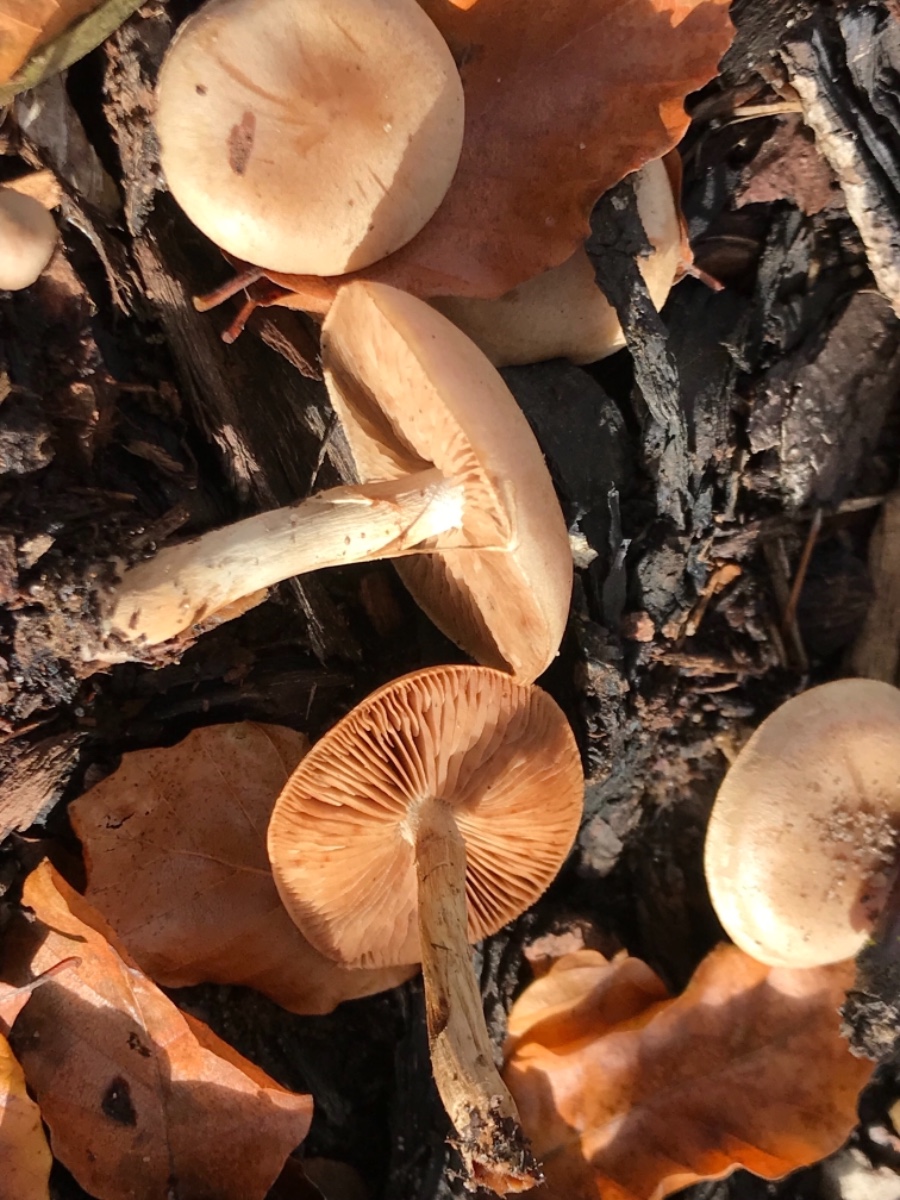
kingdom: Fungi
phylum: Basidiomycota
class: Agaricomycetes
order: Agaricales
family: Cortinariaceae
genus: Cortinarius
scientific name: Cortinarius
